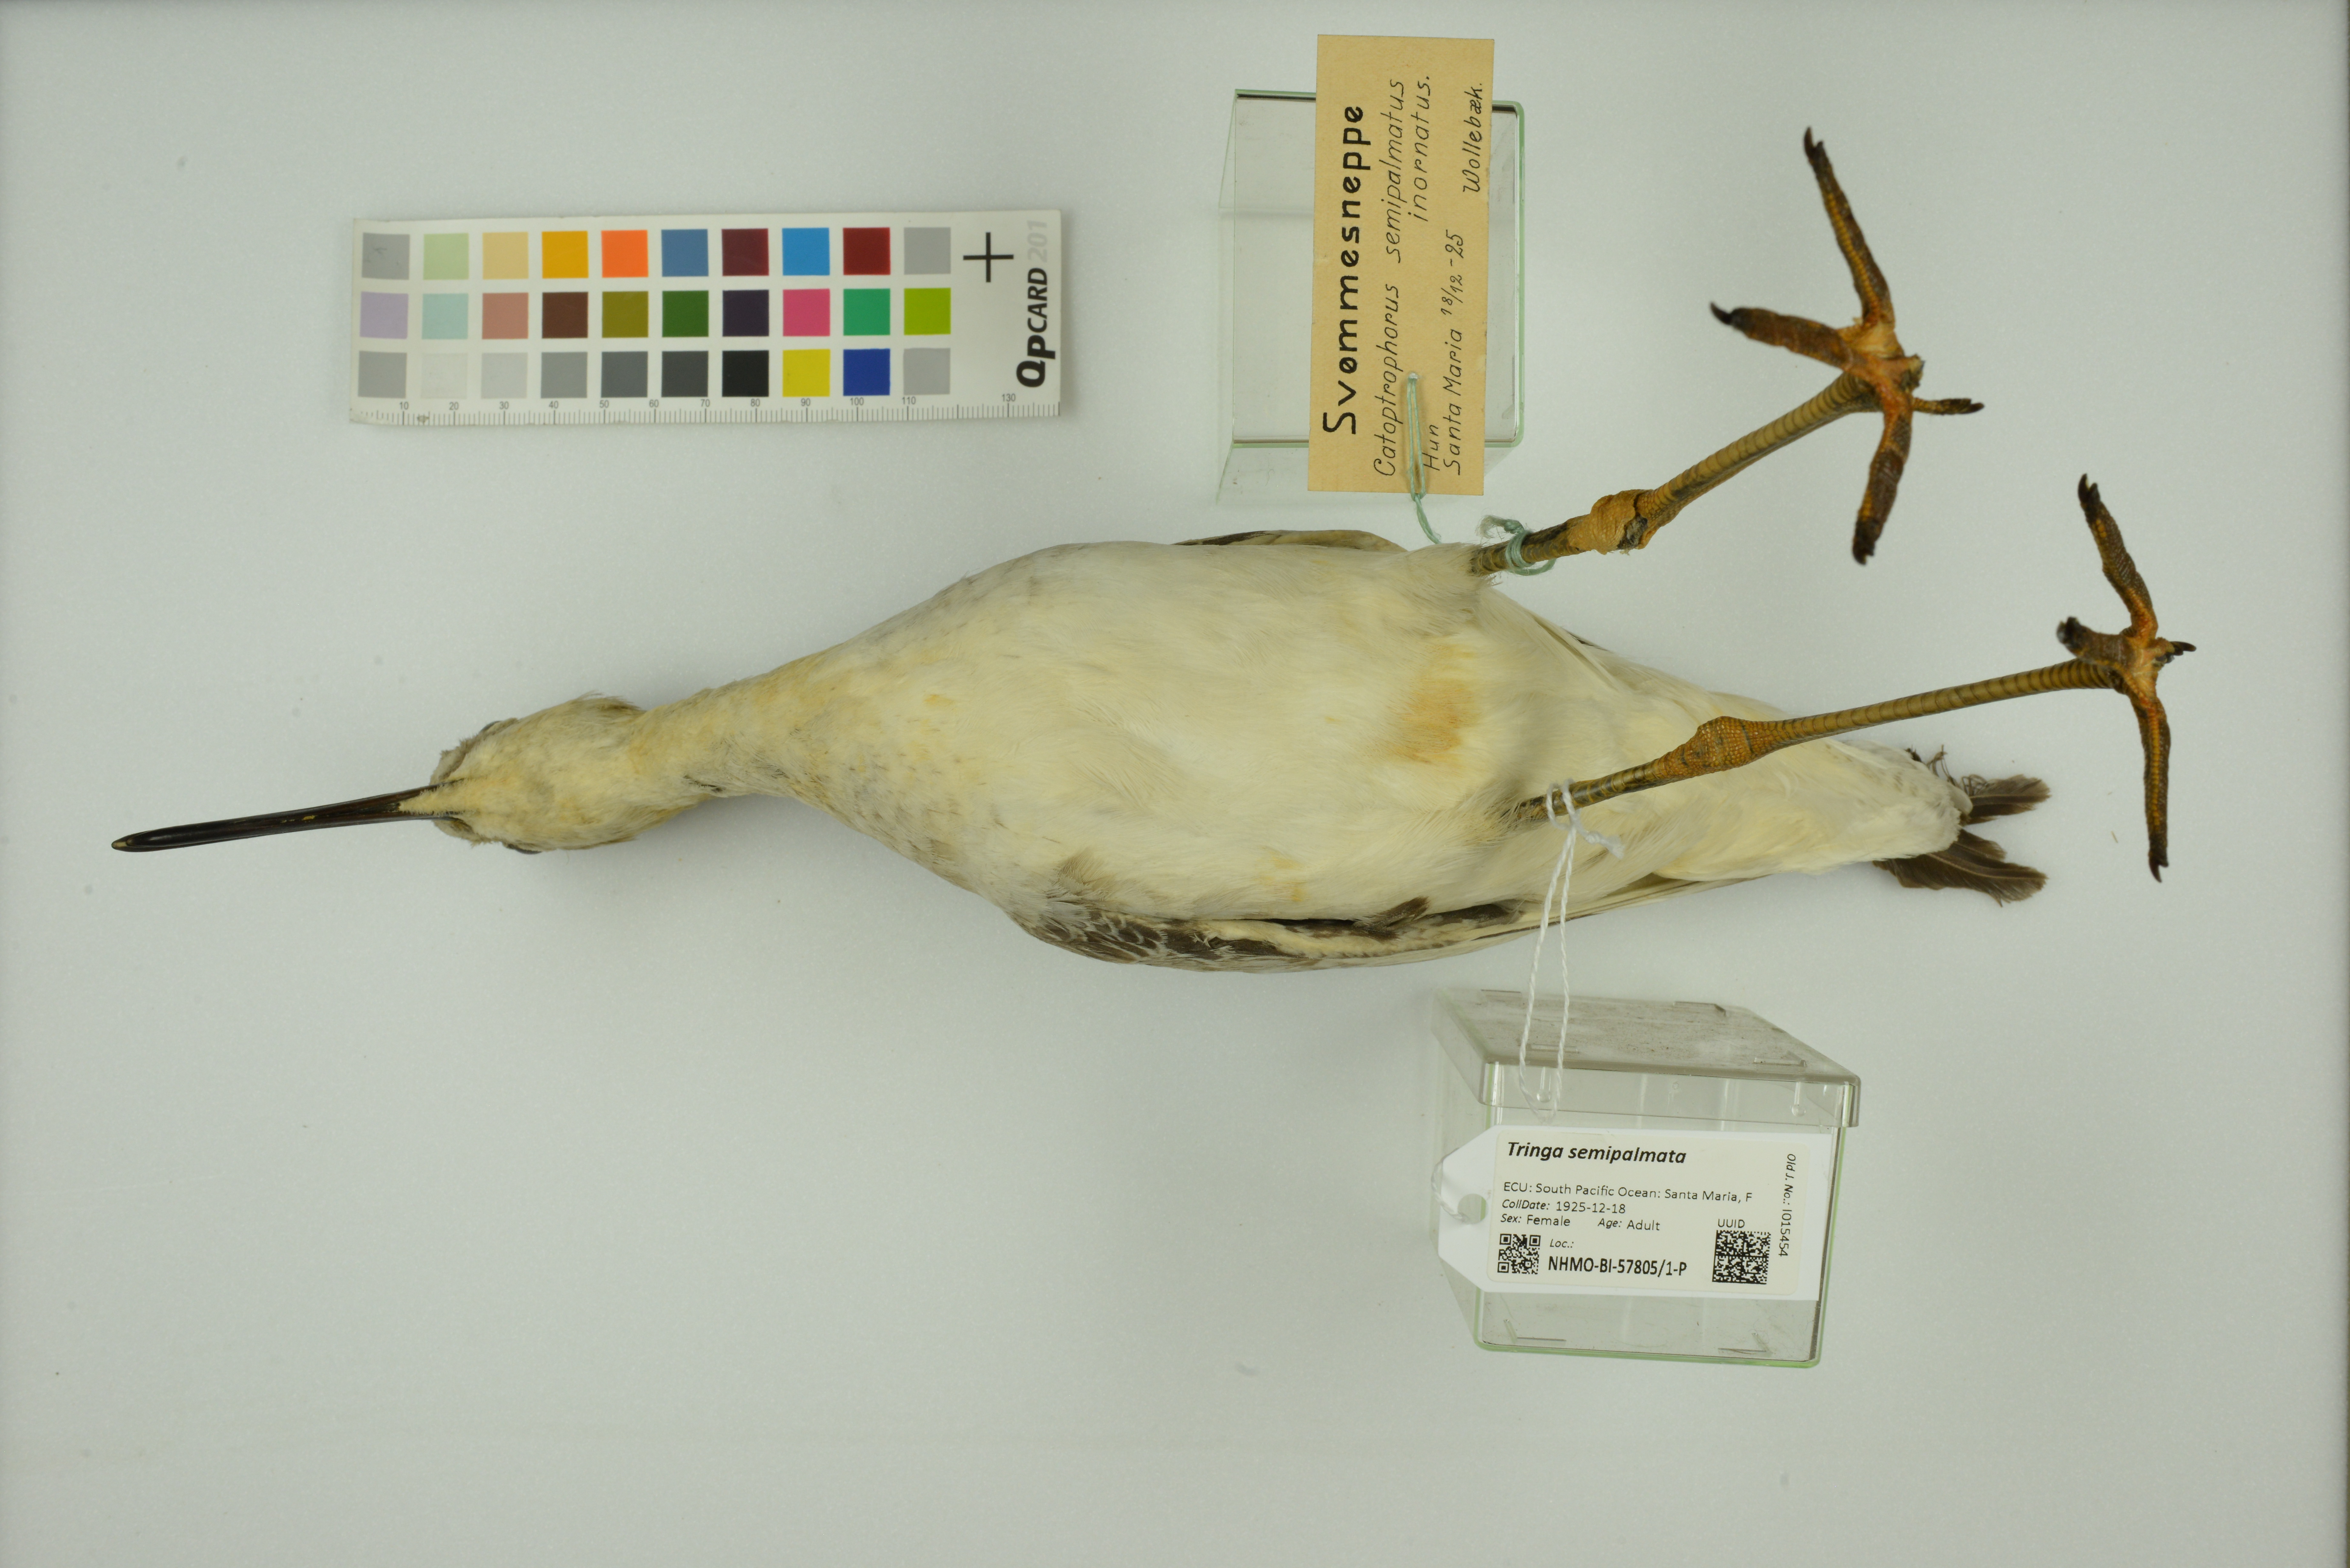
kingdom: Animalia
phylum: Chordata
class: Aves
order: Charadriiformes
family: Scolopacidae
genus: Tringa
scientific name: Tringa semipalmata
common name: Willet
